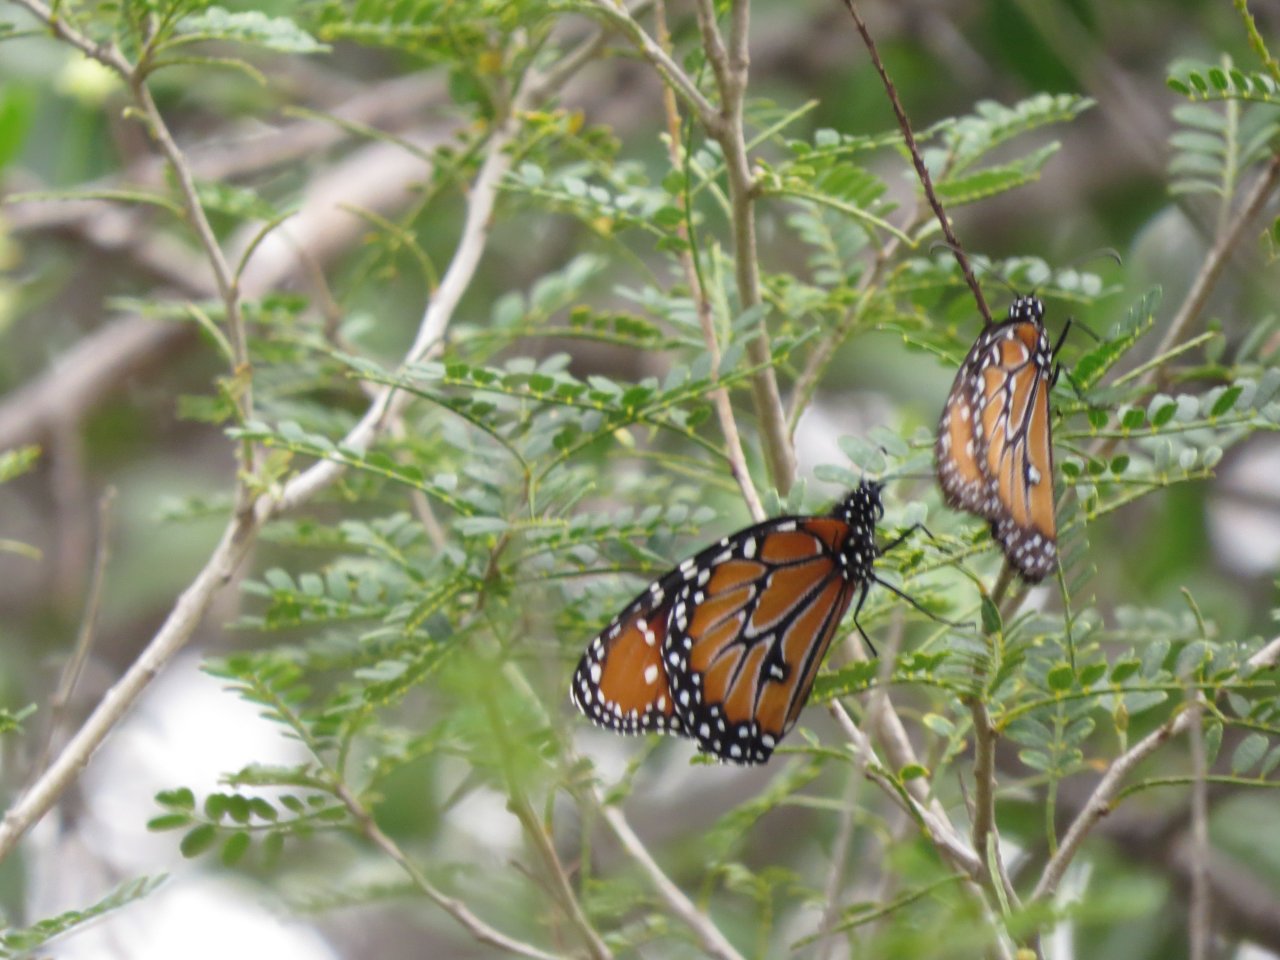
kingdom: Animalia
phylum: Arthropoda
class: Insecta
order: Lepidoptera
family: Nymphalidae
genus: Danaus
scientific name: Danaus gilippus
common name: Queen
